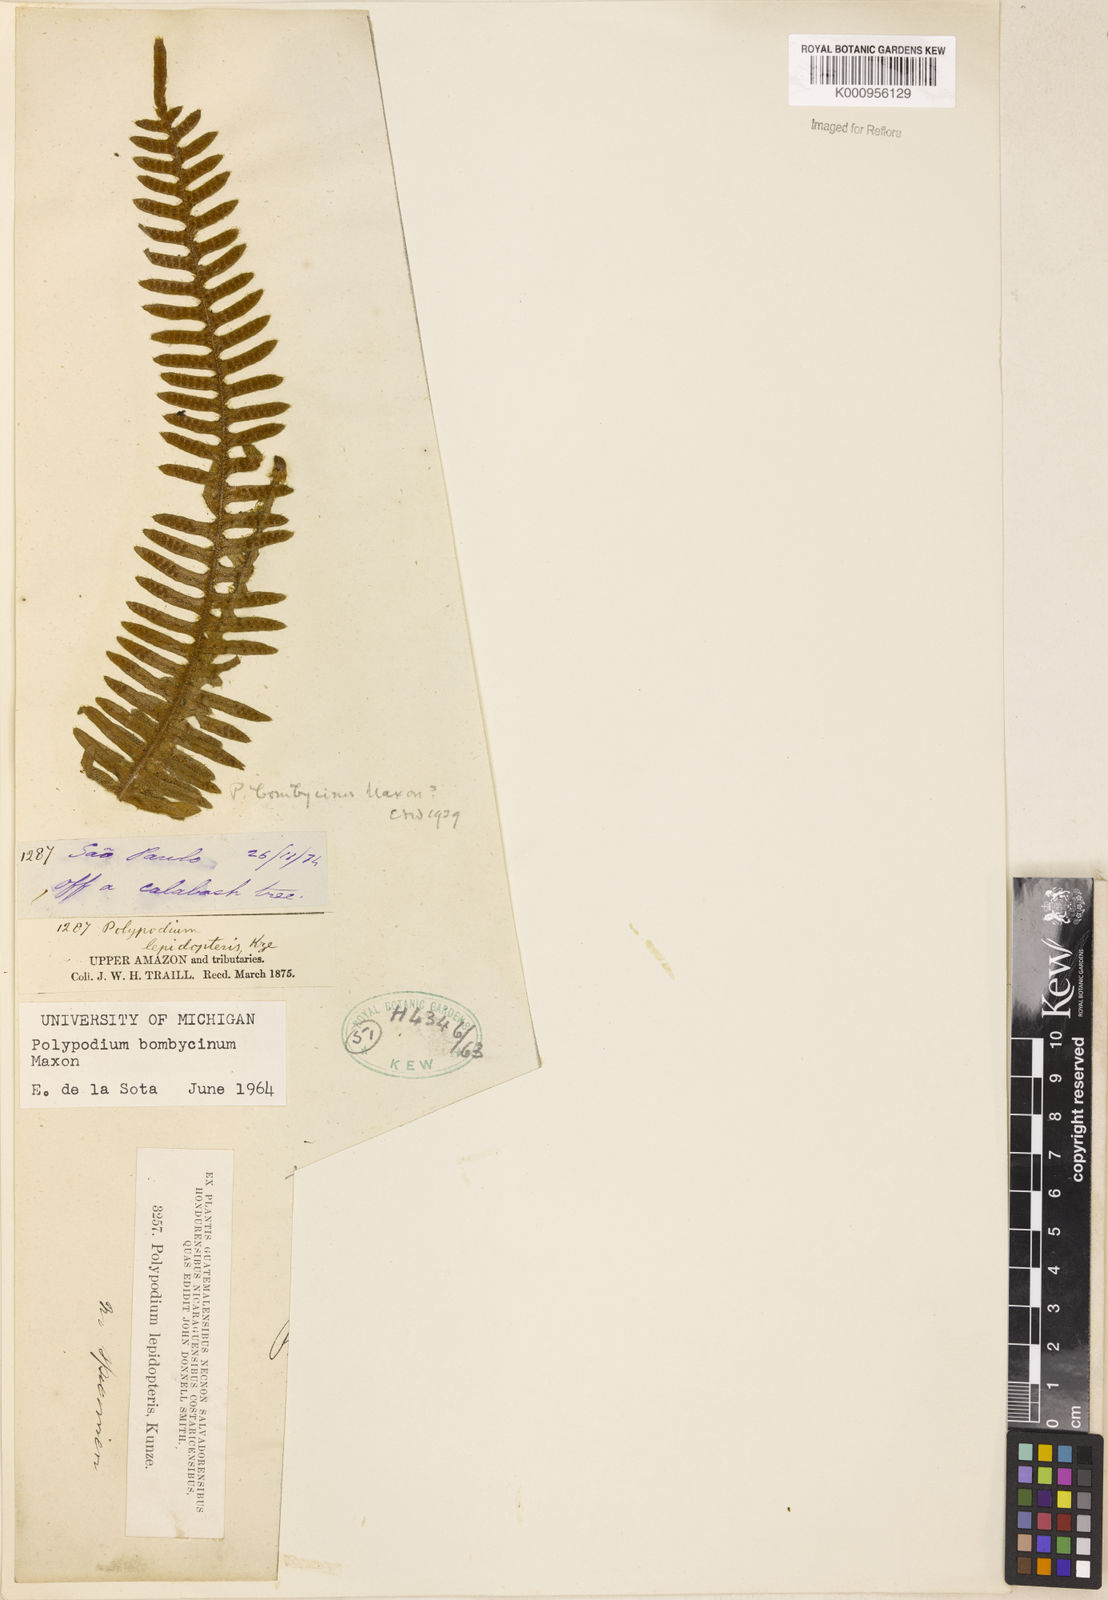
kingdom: Plantae
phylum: Tracheophyta
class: Polypodiopsida
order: Polypodiales
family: Polypodiaceae
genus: Pleopeltis
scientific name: Pleopeltis bombycina
